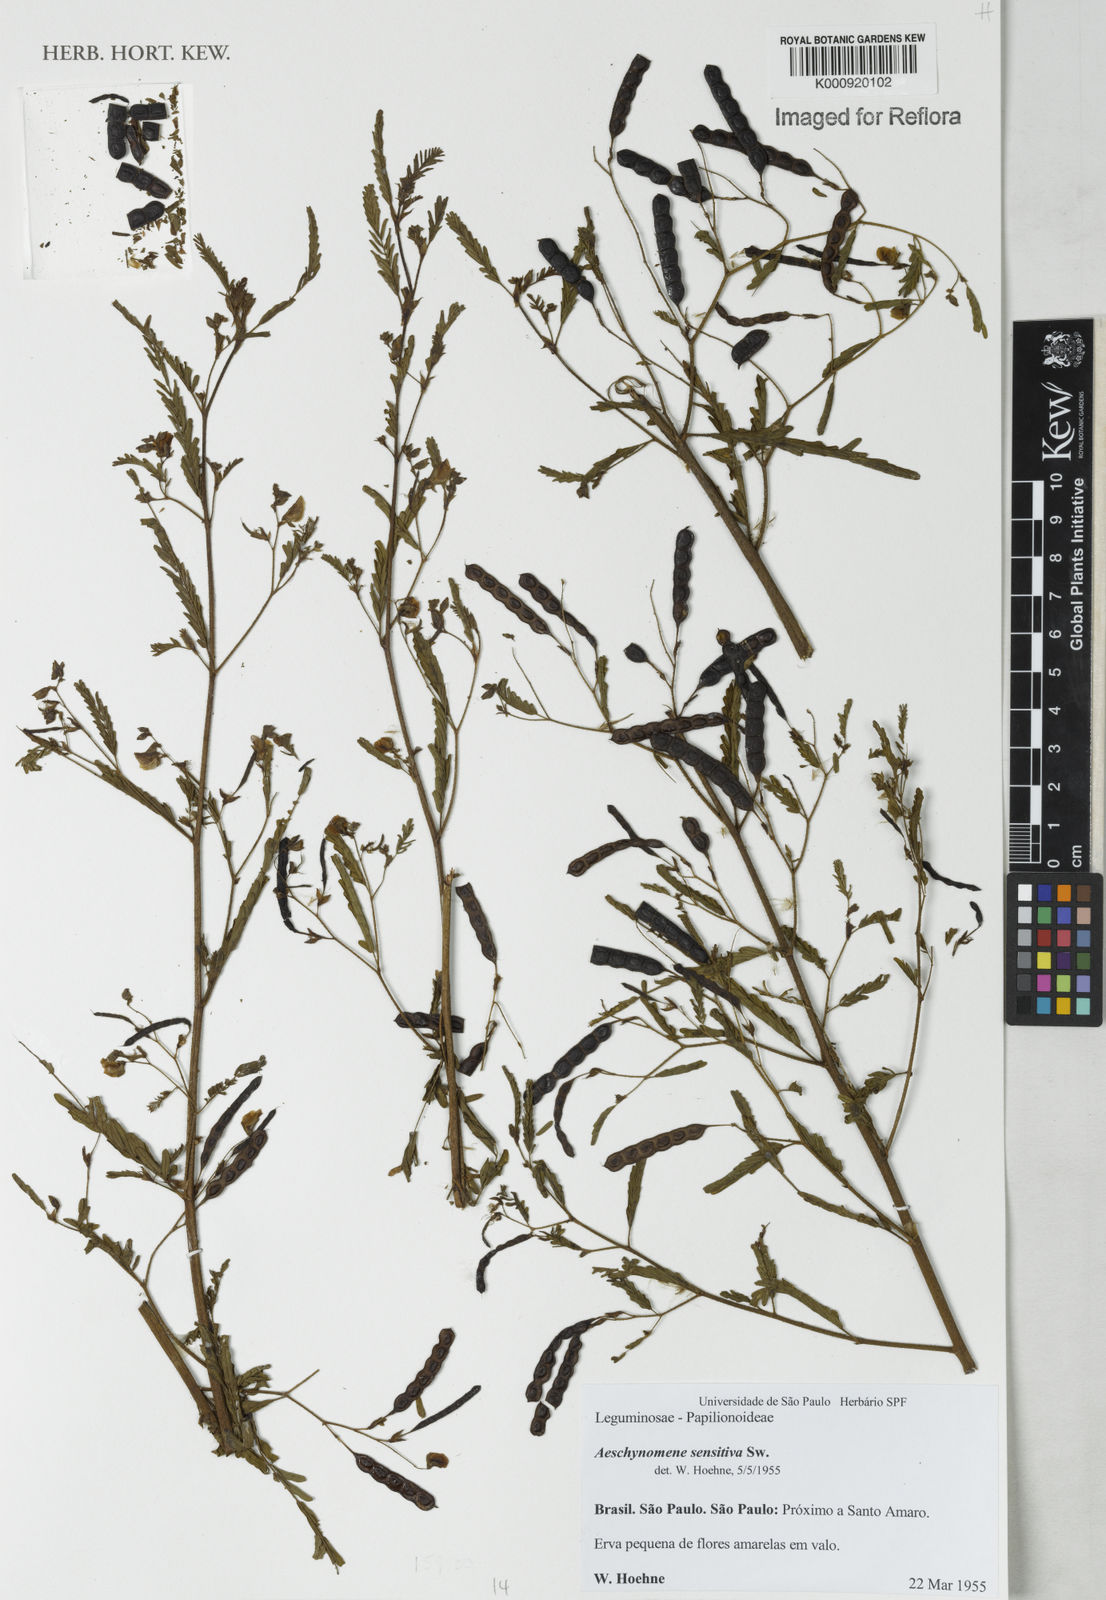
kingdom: Plantae
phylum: Tracheophyta
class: Magnoliopsida
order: Fabales
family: Fabaceae
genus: Aeschynomene
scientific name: Aeschynomene sensitiva
